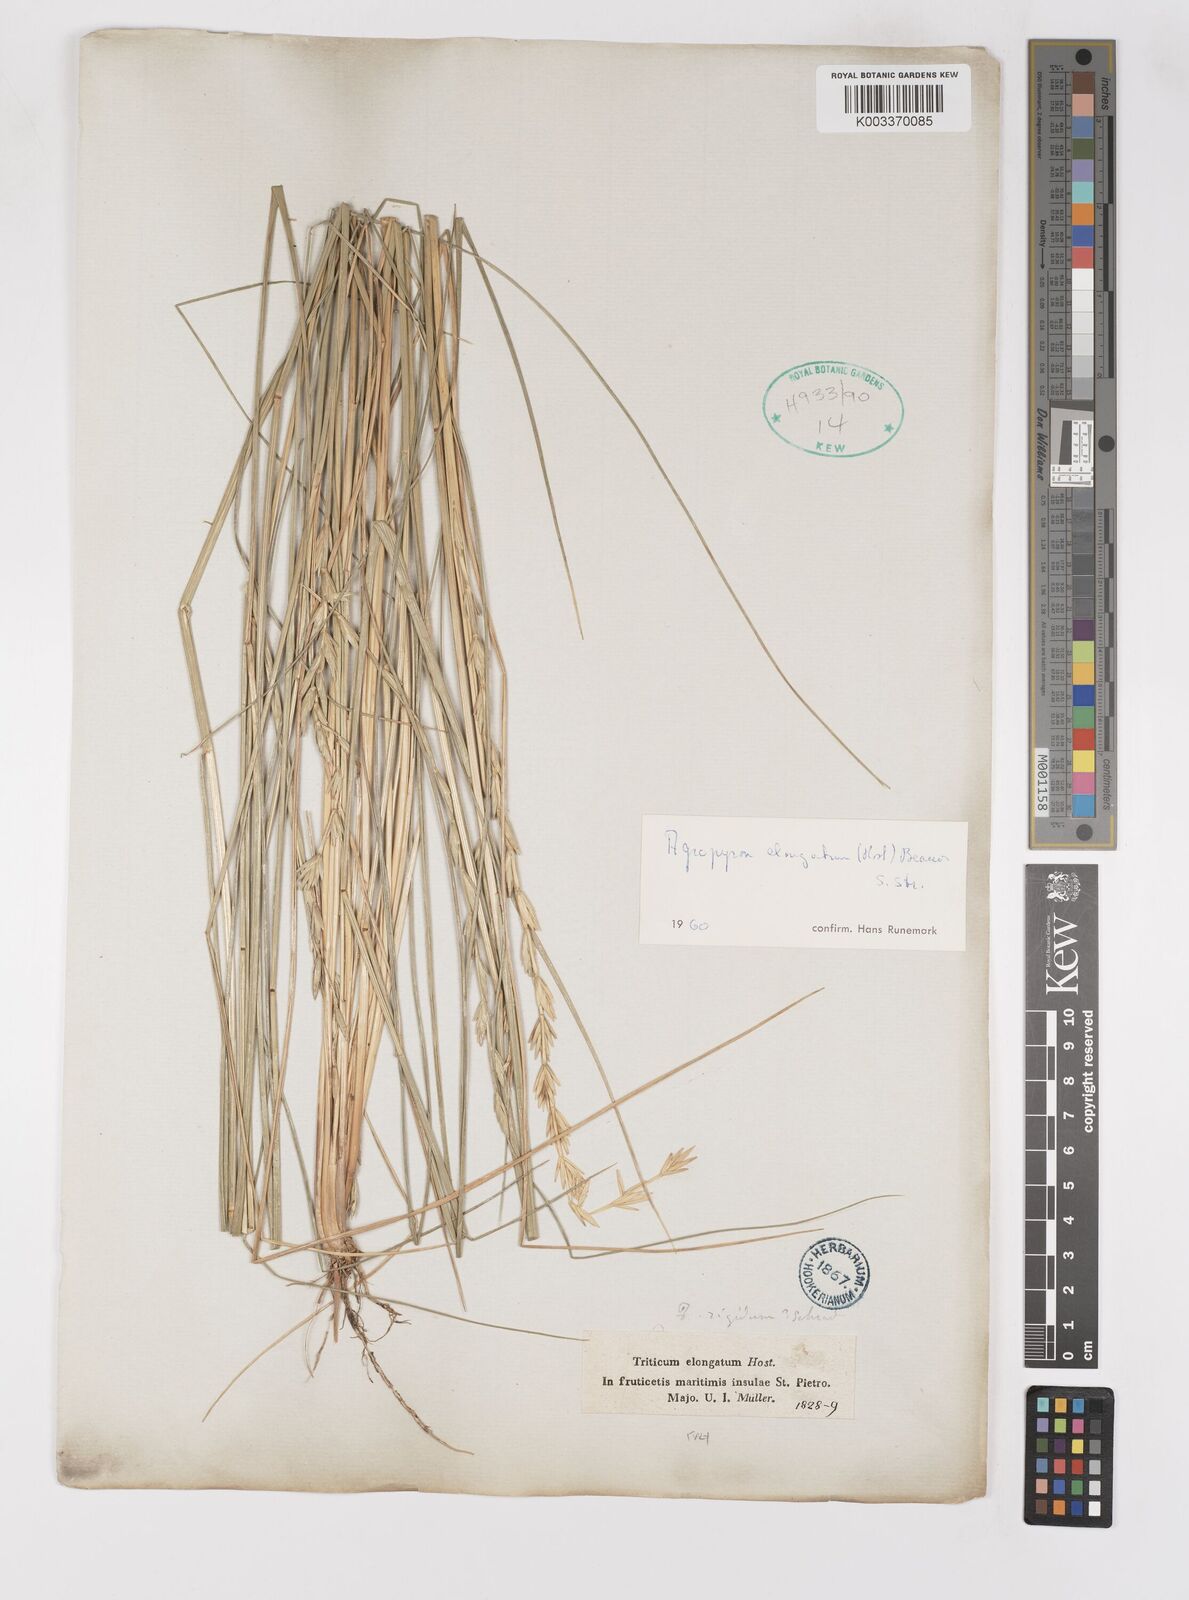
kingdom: Plantae
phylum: Tracheophyta
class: Liliopsida
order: Poales
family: Poaceae
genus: Thinopyrum
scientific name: Thinopyrum elongatum
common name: Tall wheatgrass
